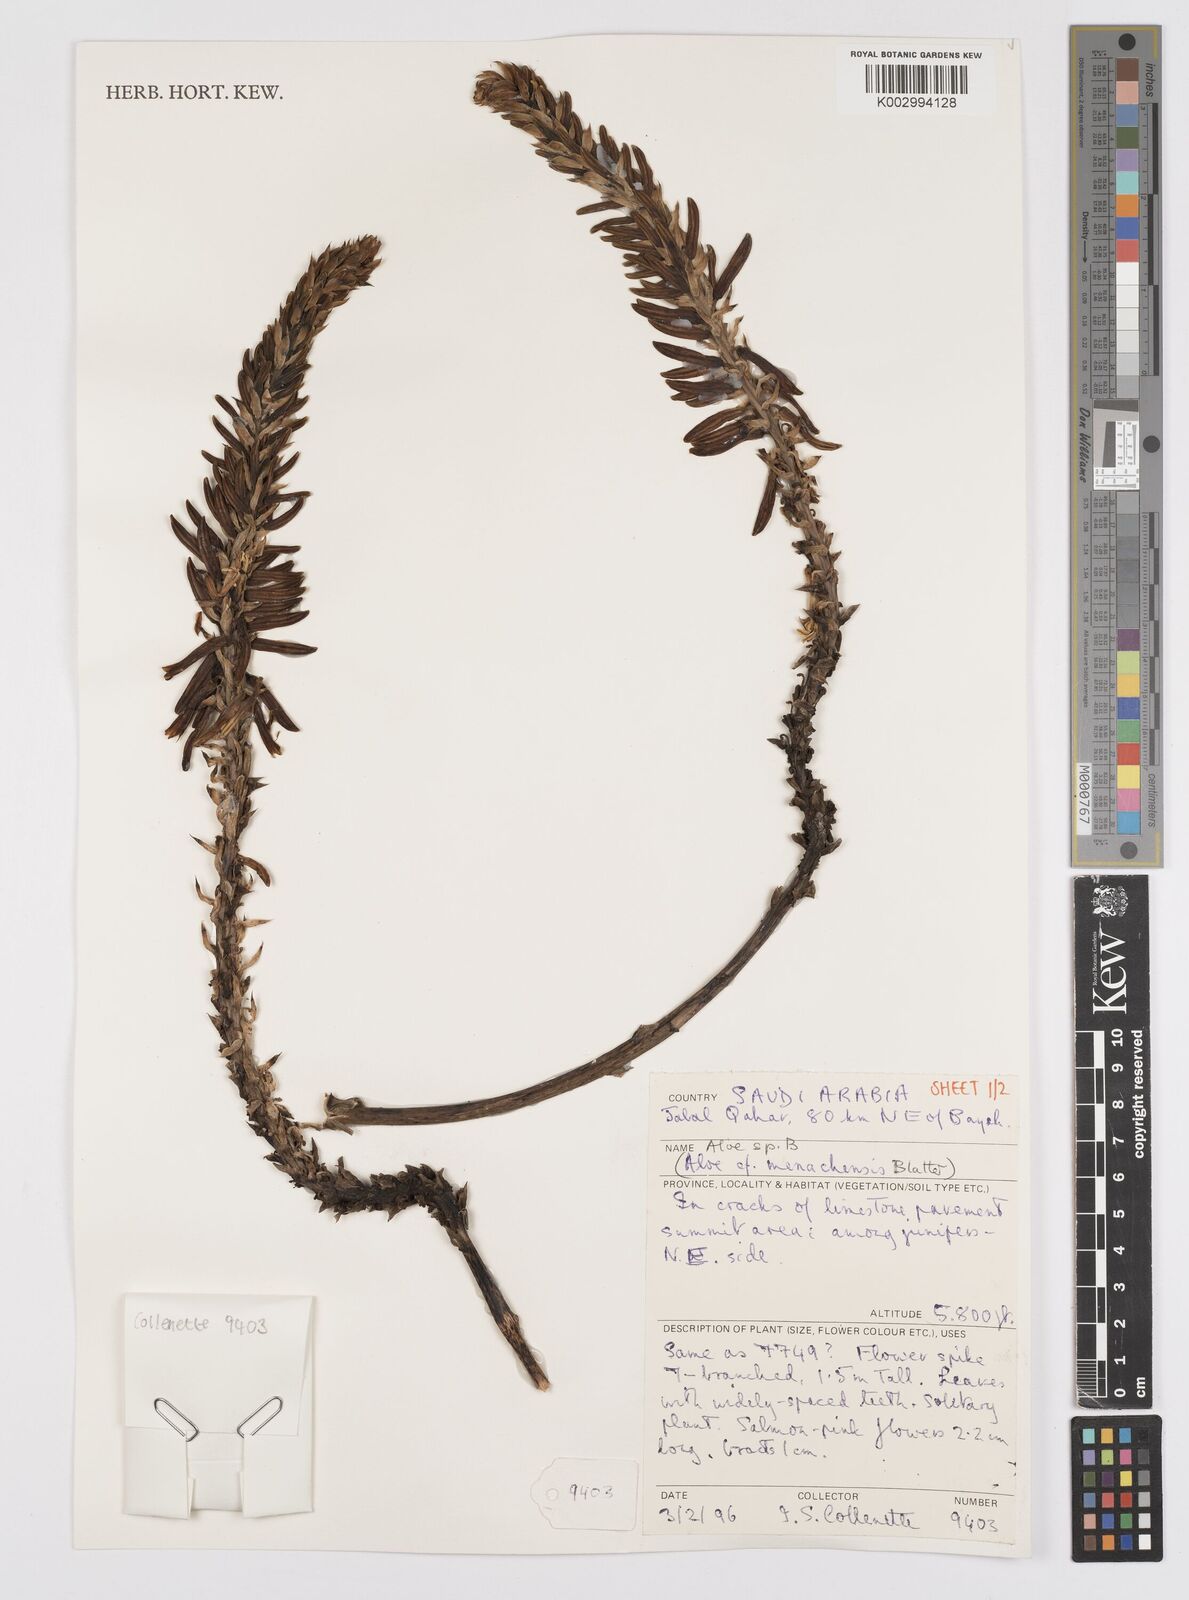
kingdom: Plantae
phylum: Tracheophyta
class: Liliopsida
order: Asparagales
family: Asphodelaceae
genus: Aloe
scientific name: Aloe
